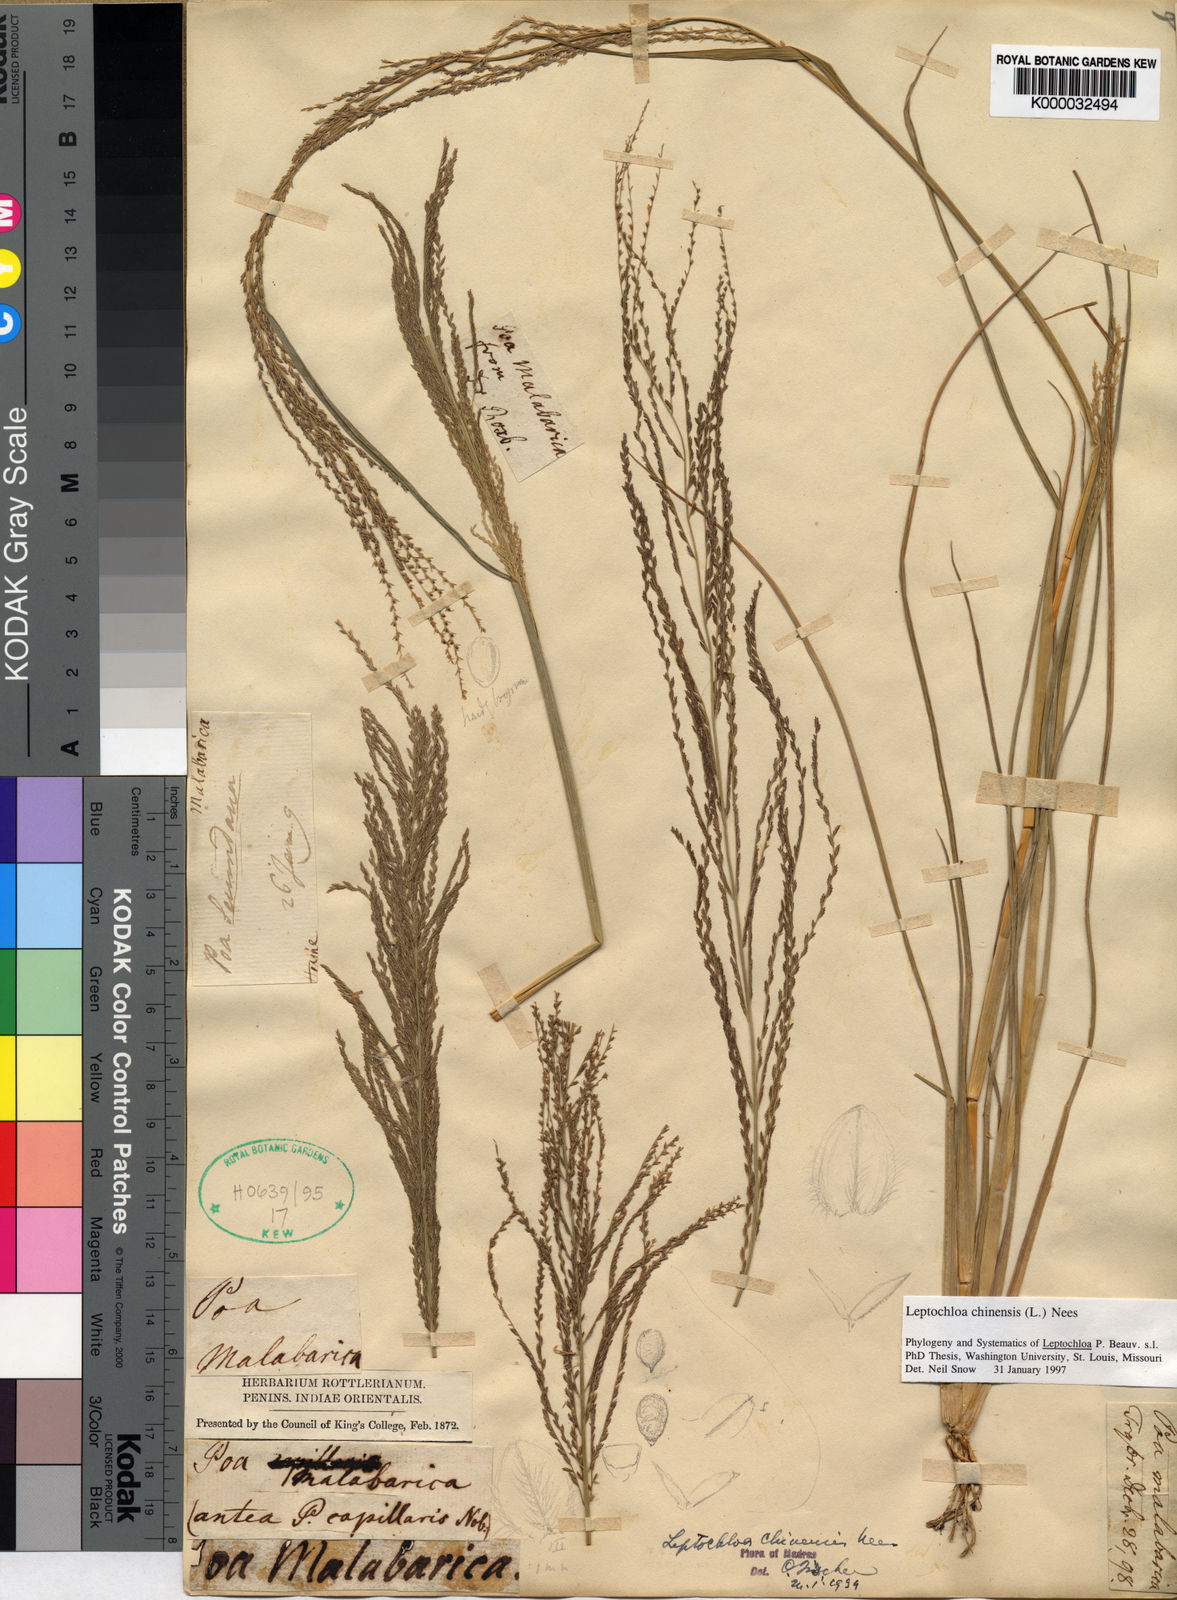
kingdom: Plantae
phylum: Tracheophyta
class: Liliopsida
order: Poales
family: Poaceae
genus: Leptochloa
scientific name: Leptochloa
